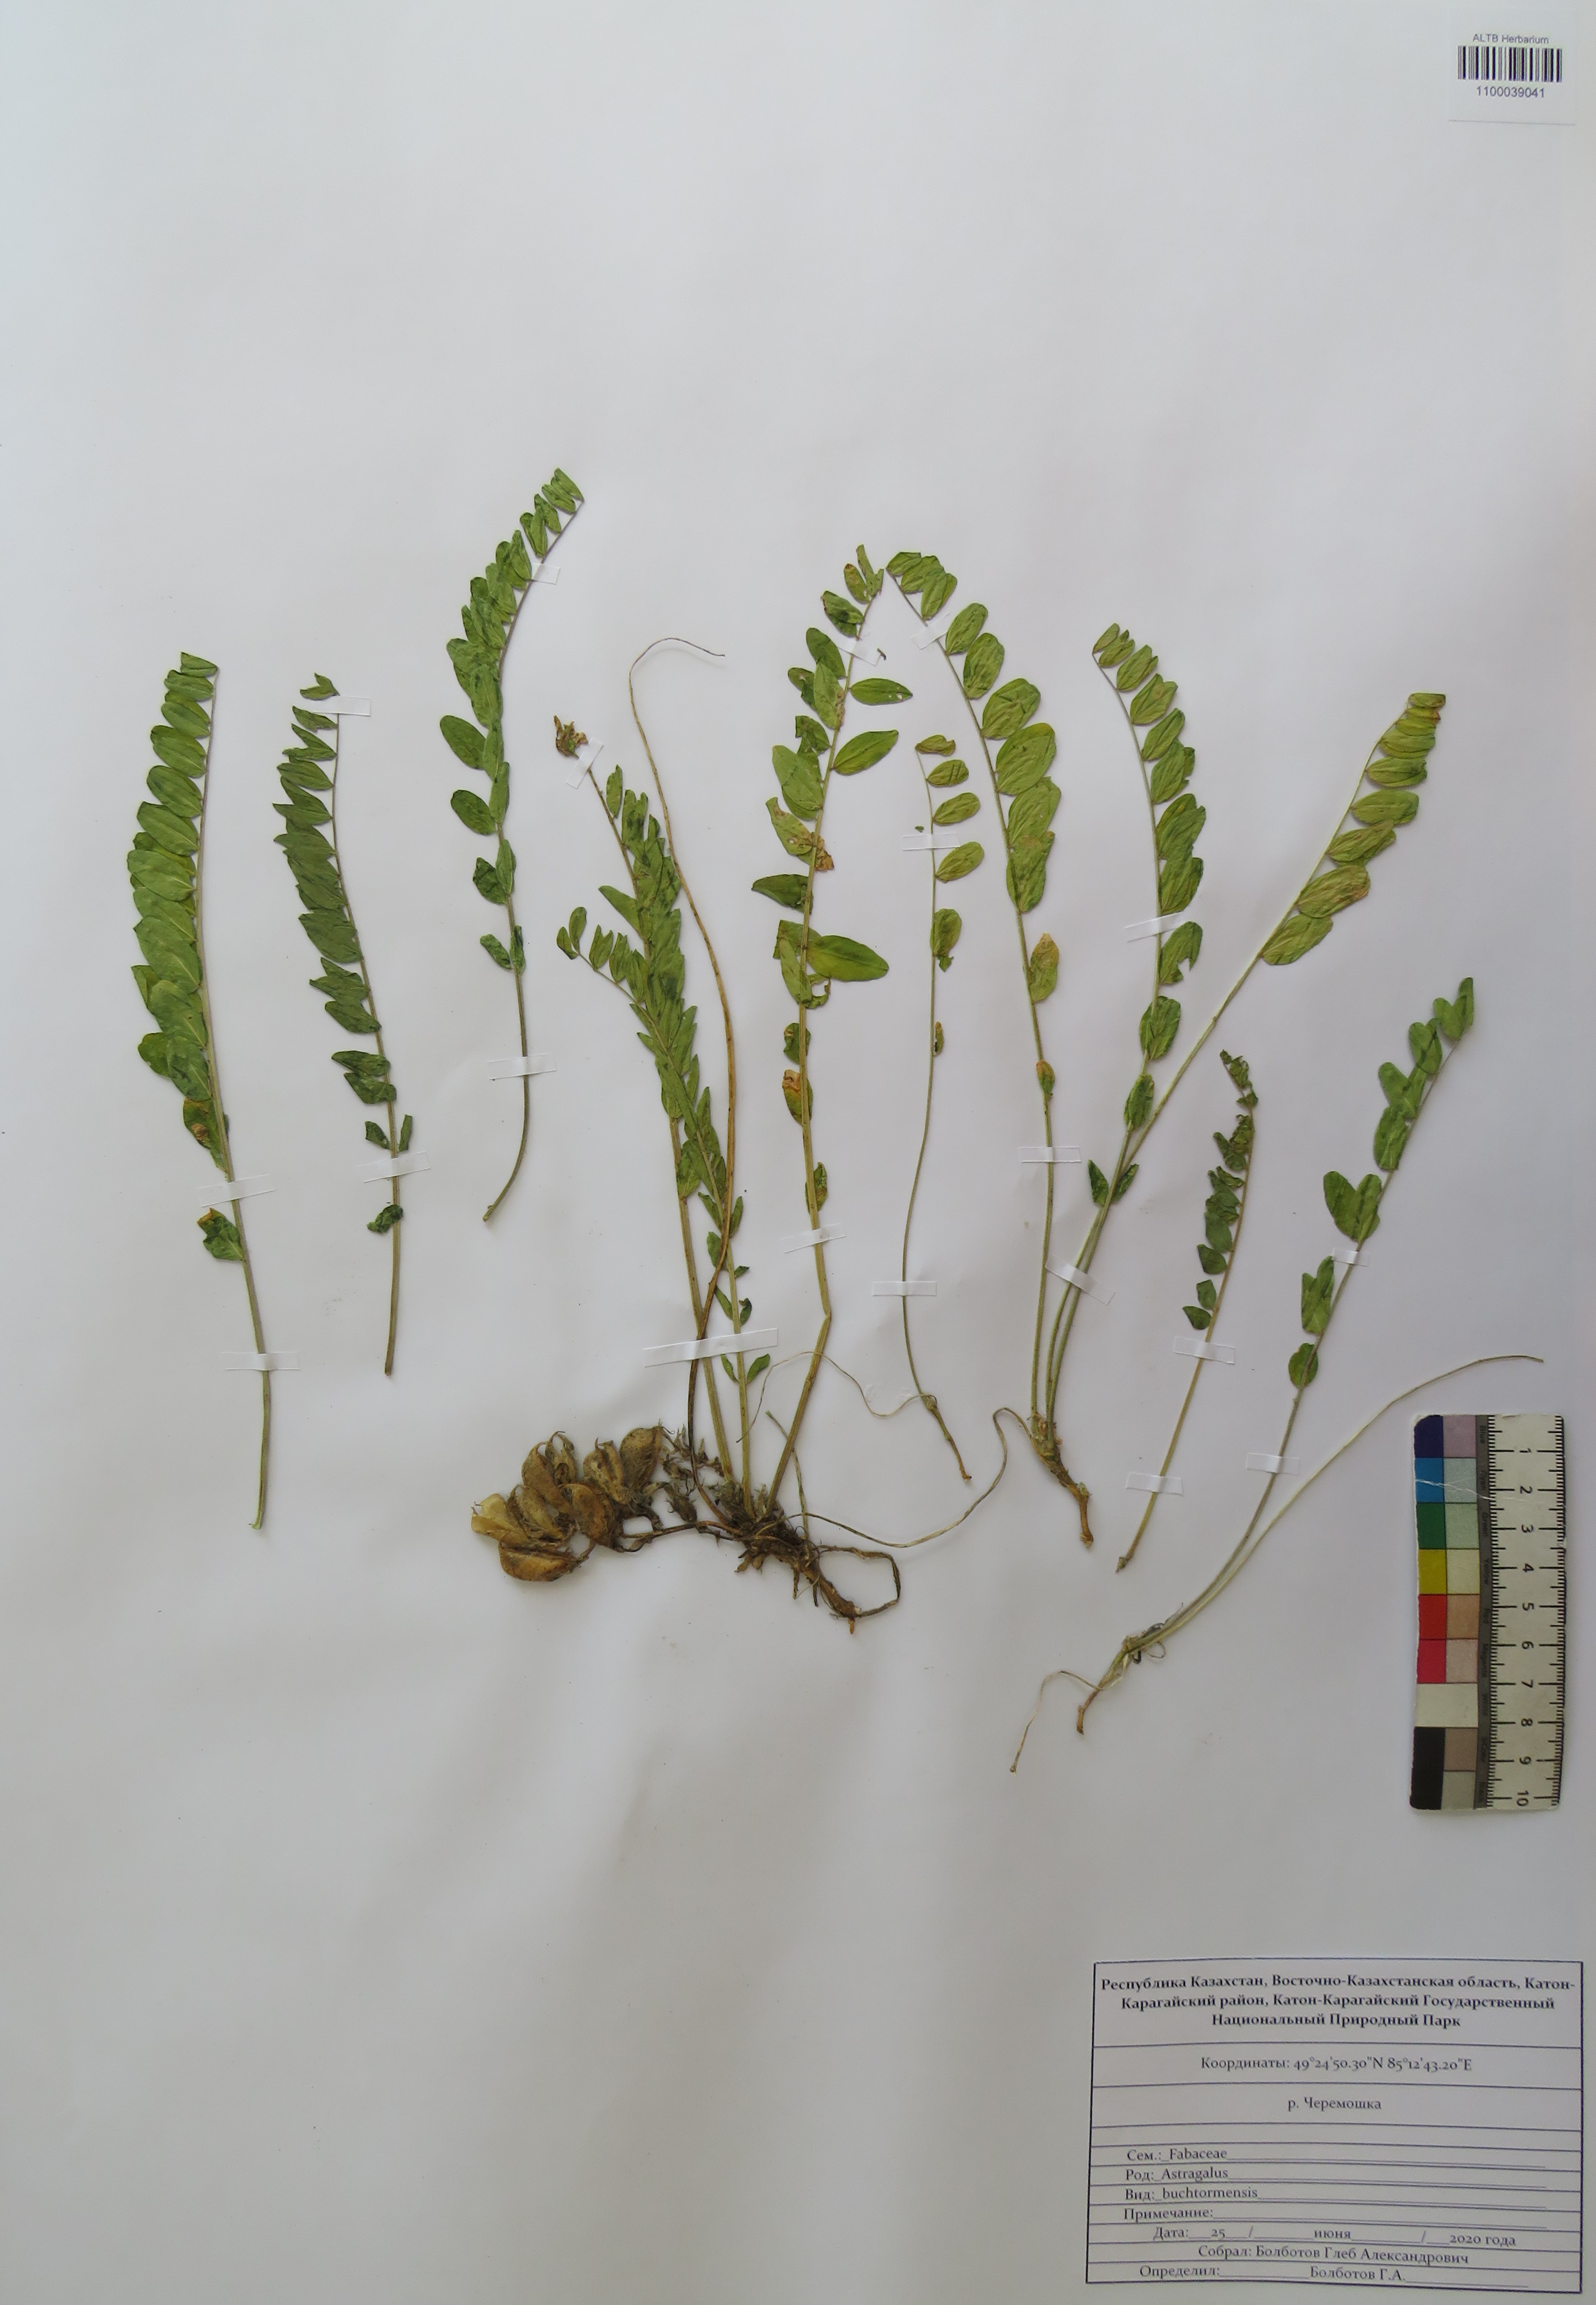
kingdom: Plantae
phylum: Tracheophyta
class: Magnoliopsida
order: Fabales
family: Fabaceae
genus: Astragalus
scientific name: Astragalus buchtormensis
